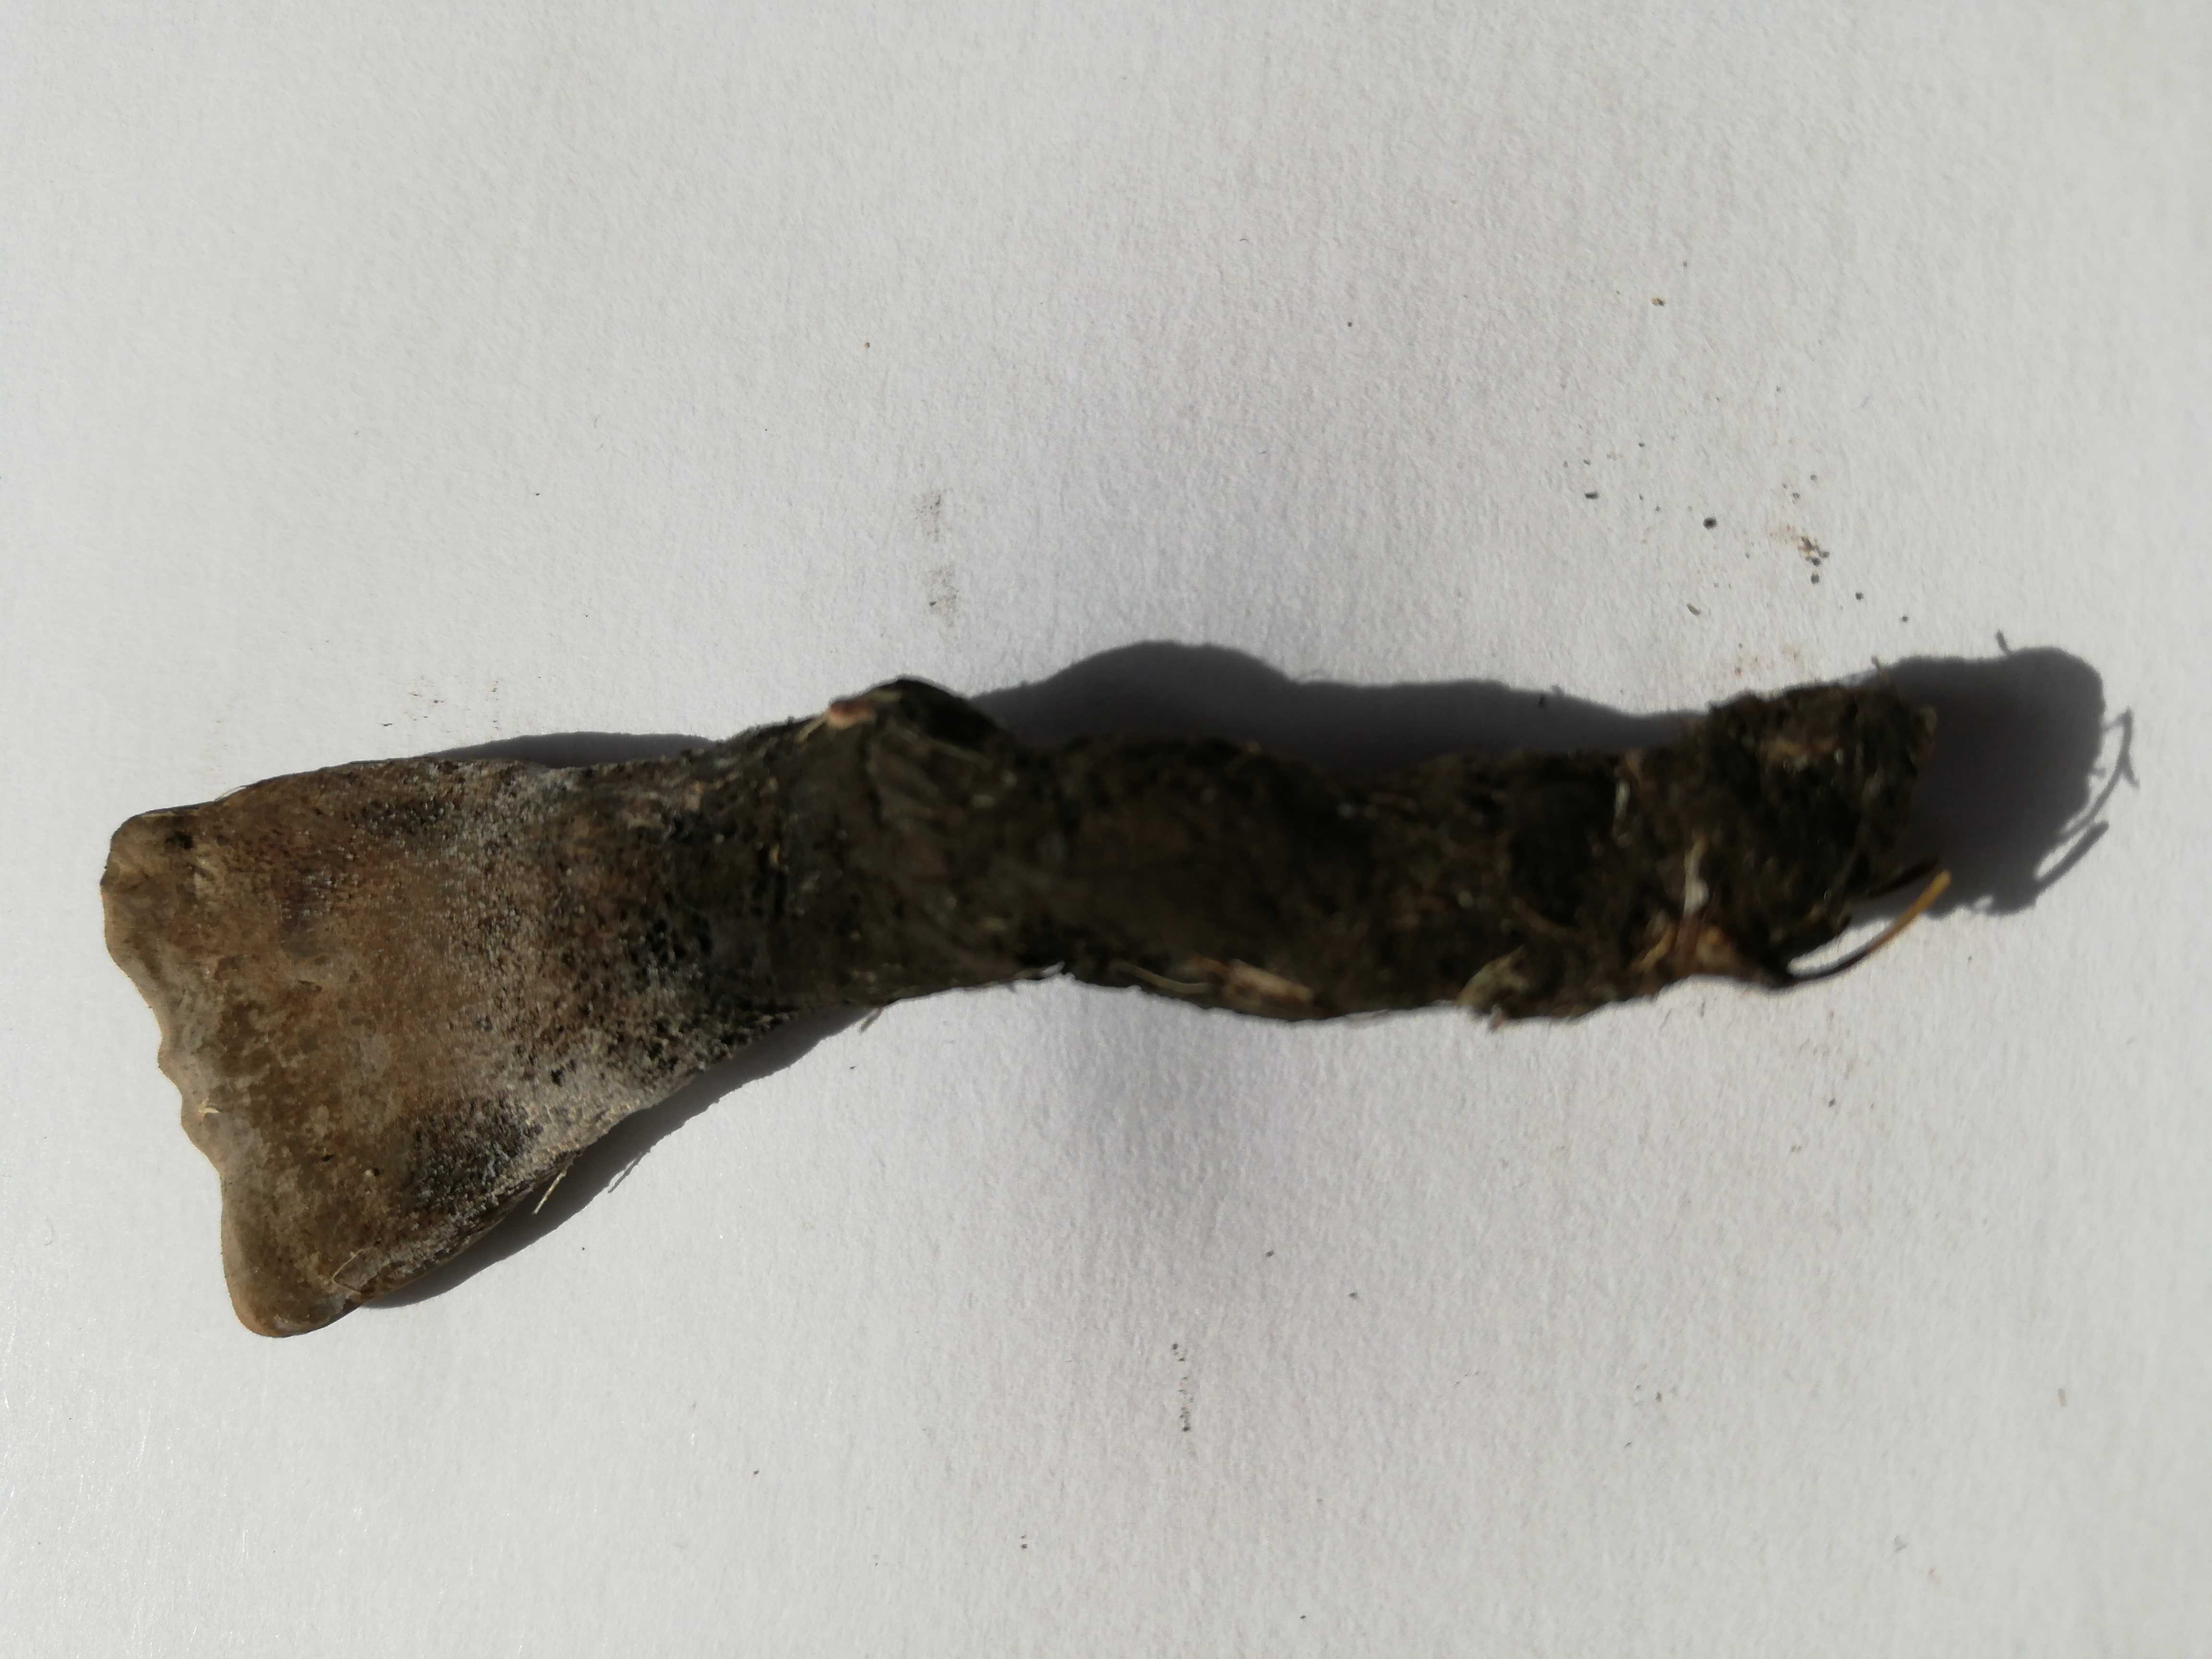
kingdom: Fungi
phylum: Ascomycota
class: Sordariomycetes
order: Xylariales
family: Xylariaceae
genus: Xylaria
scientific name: Xylaria
